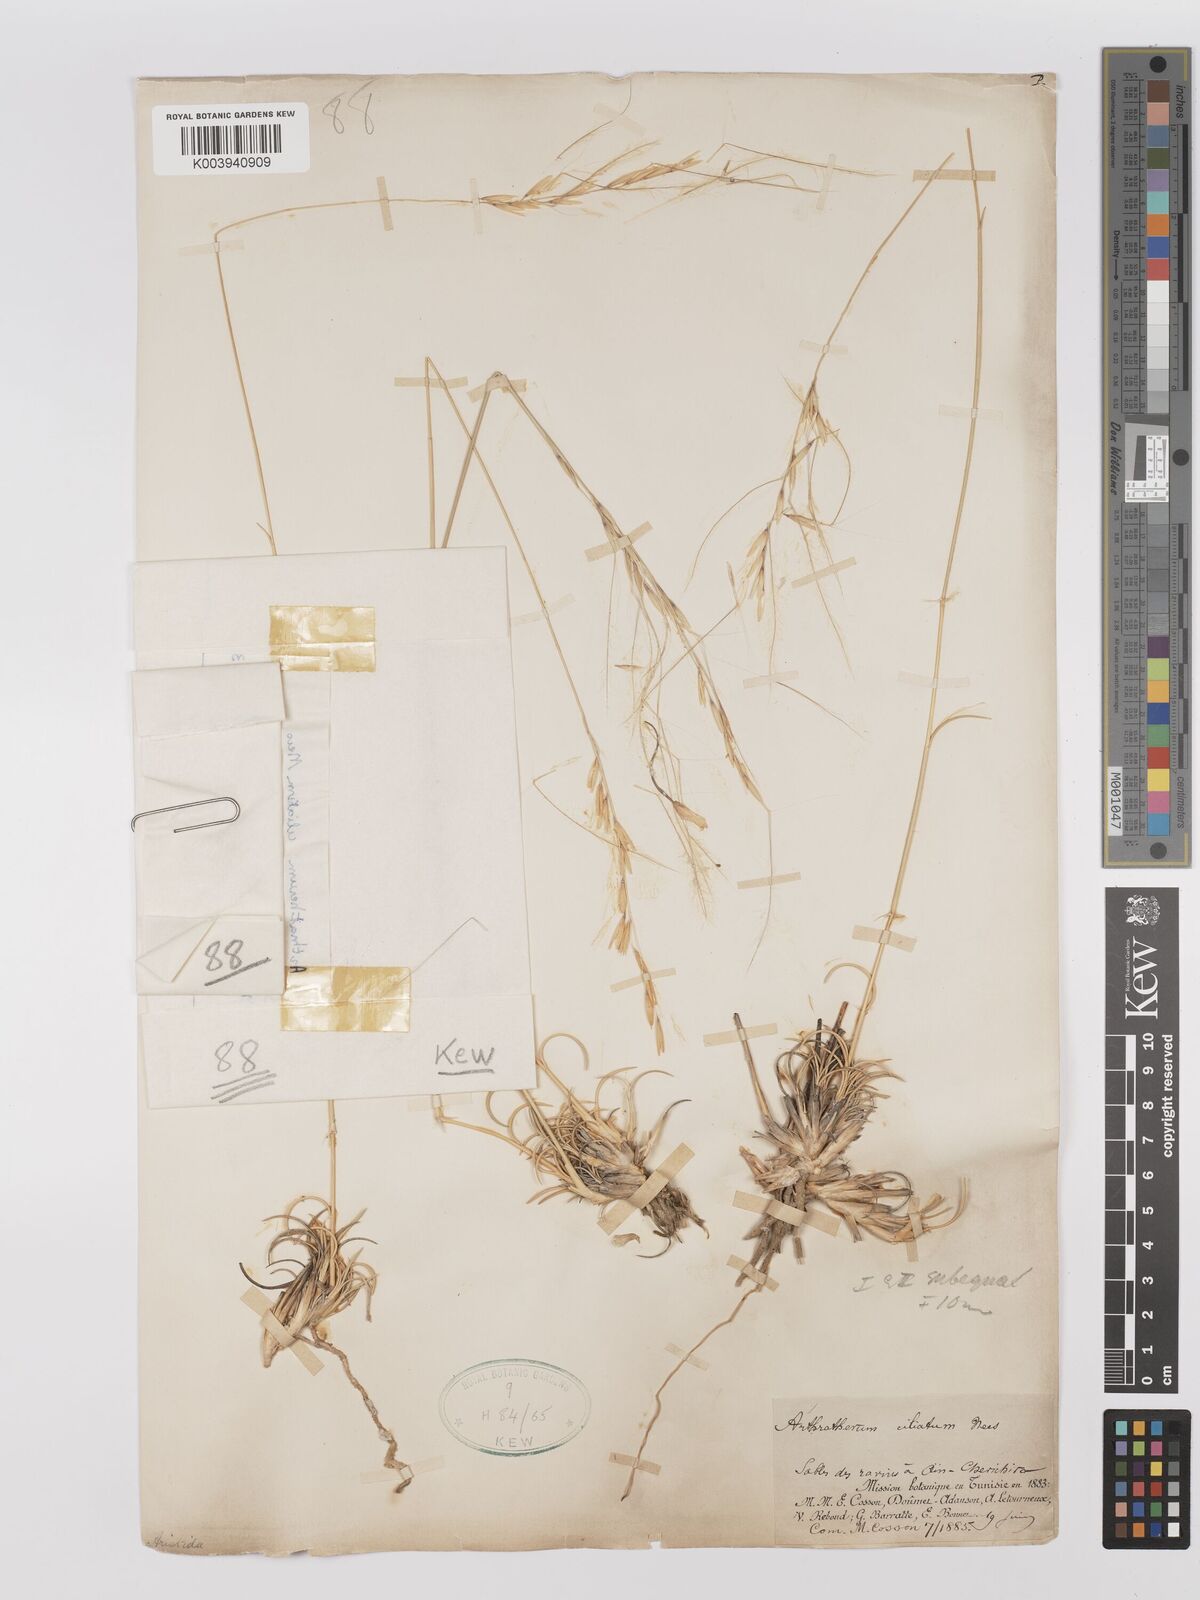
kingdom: Plantae
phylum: Tracheophyta
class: Liliopsida
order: Poales
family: Poaceae
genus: Stipagrostis
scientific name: Stipagrostis ciliata
